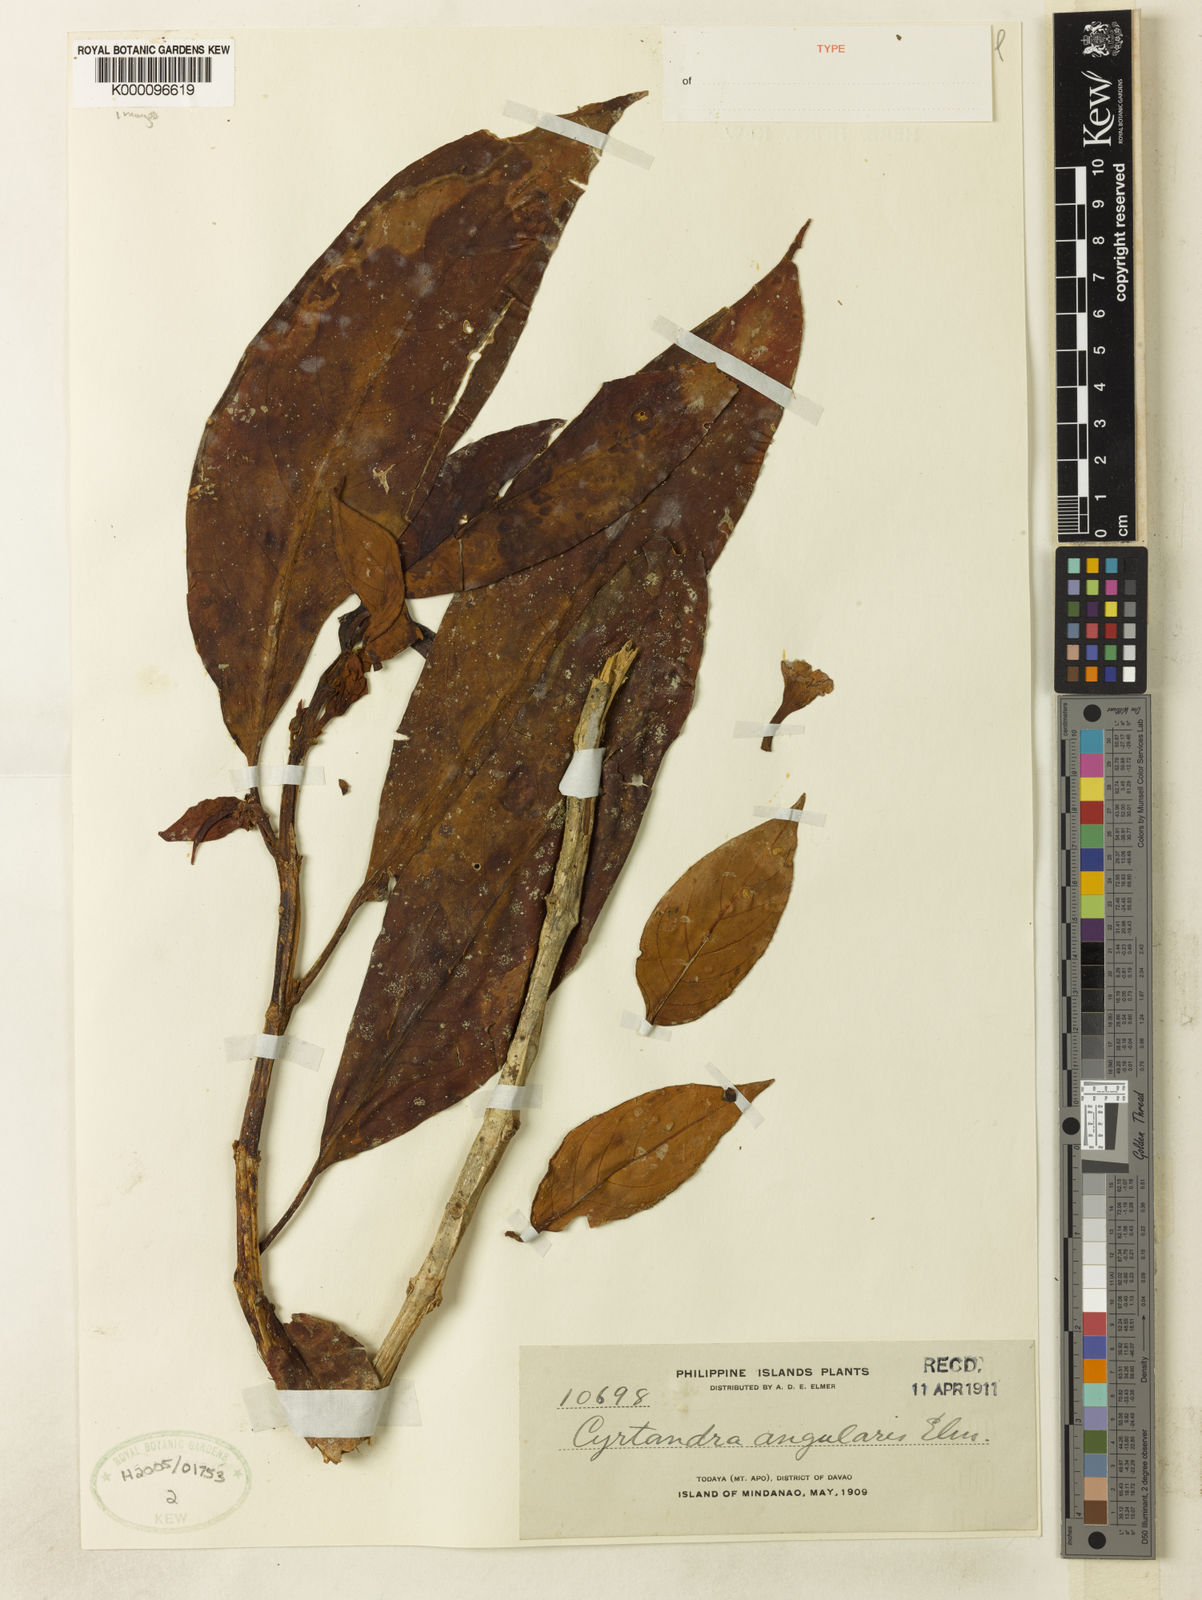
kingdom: Plantae
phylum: Tracheophyta
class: Magnoliopsida
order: Lamiales
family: Gesneriaceae
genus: Cyrtandra
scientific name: Cyrtandra angularis
